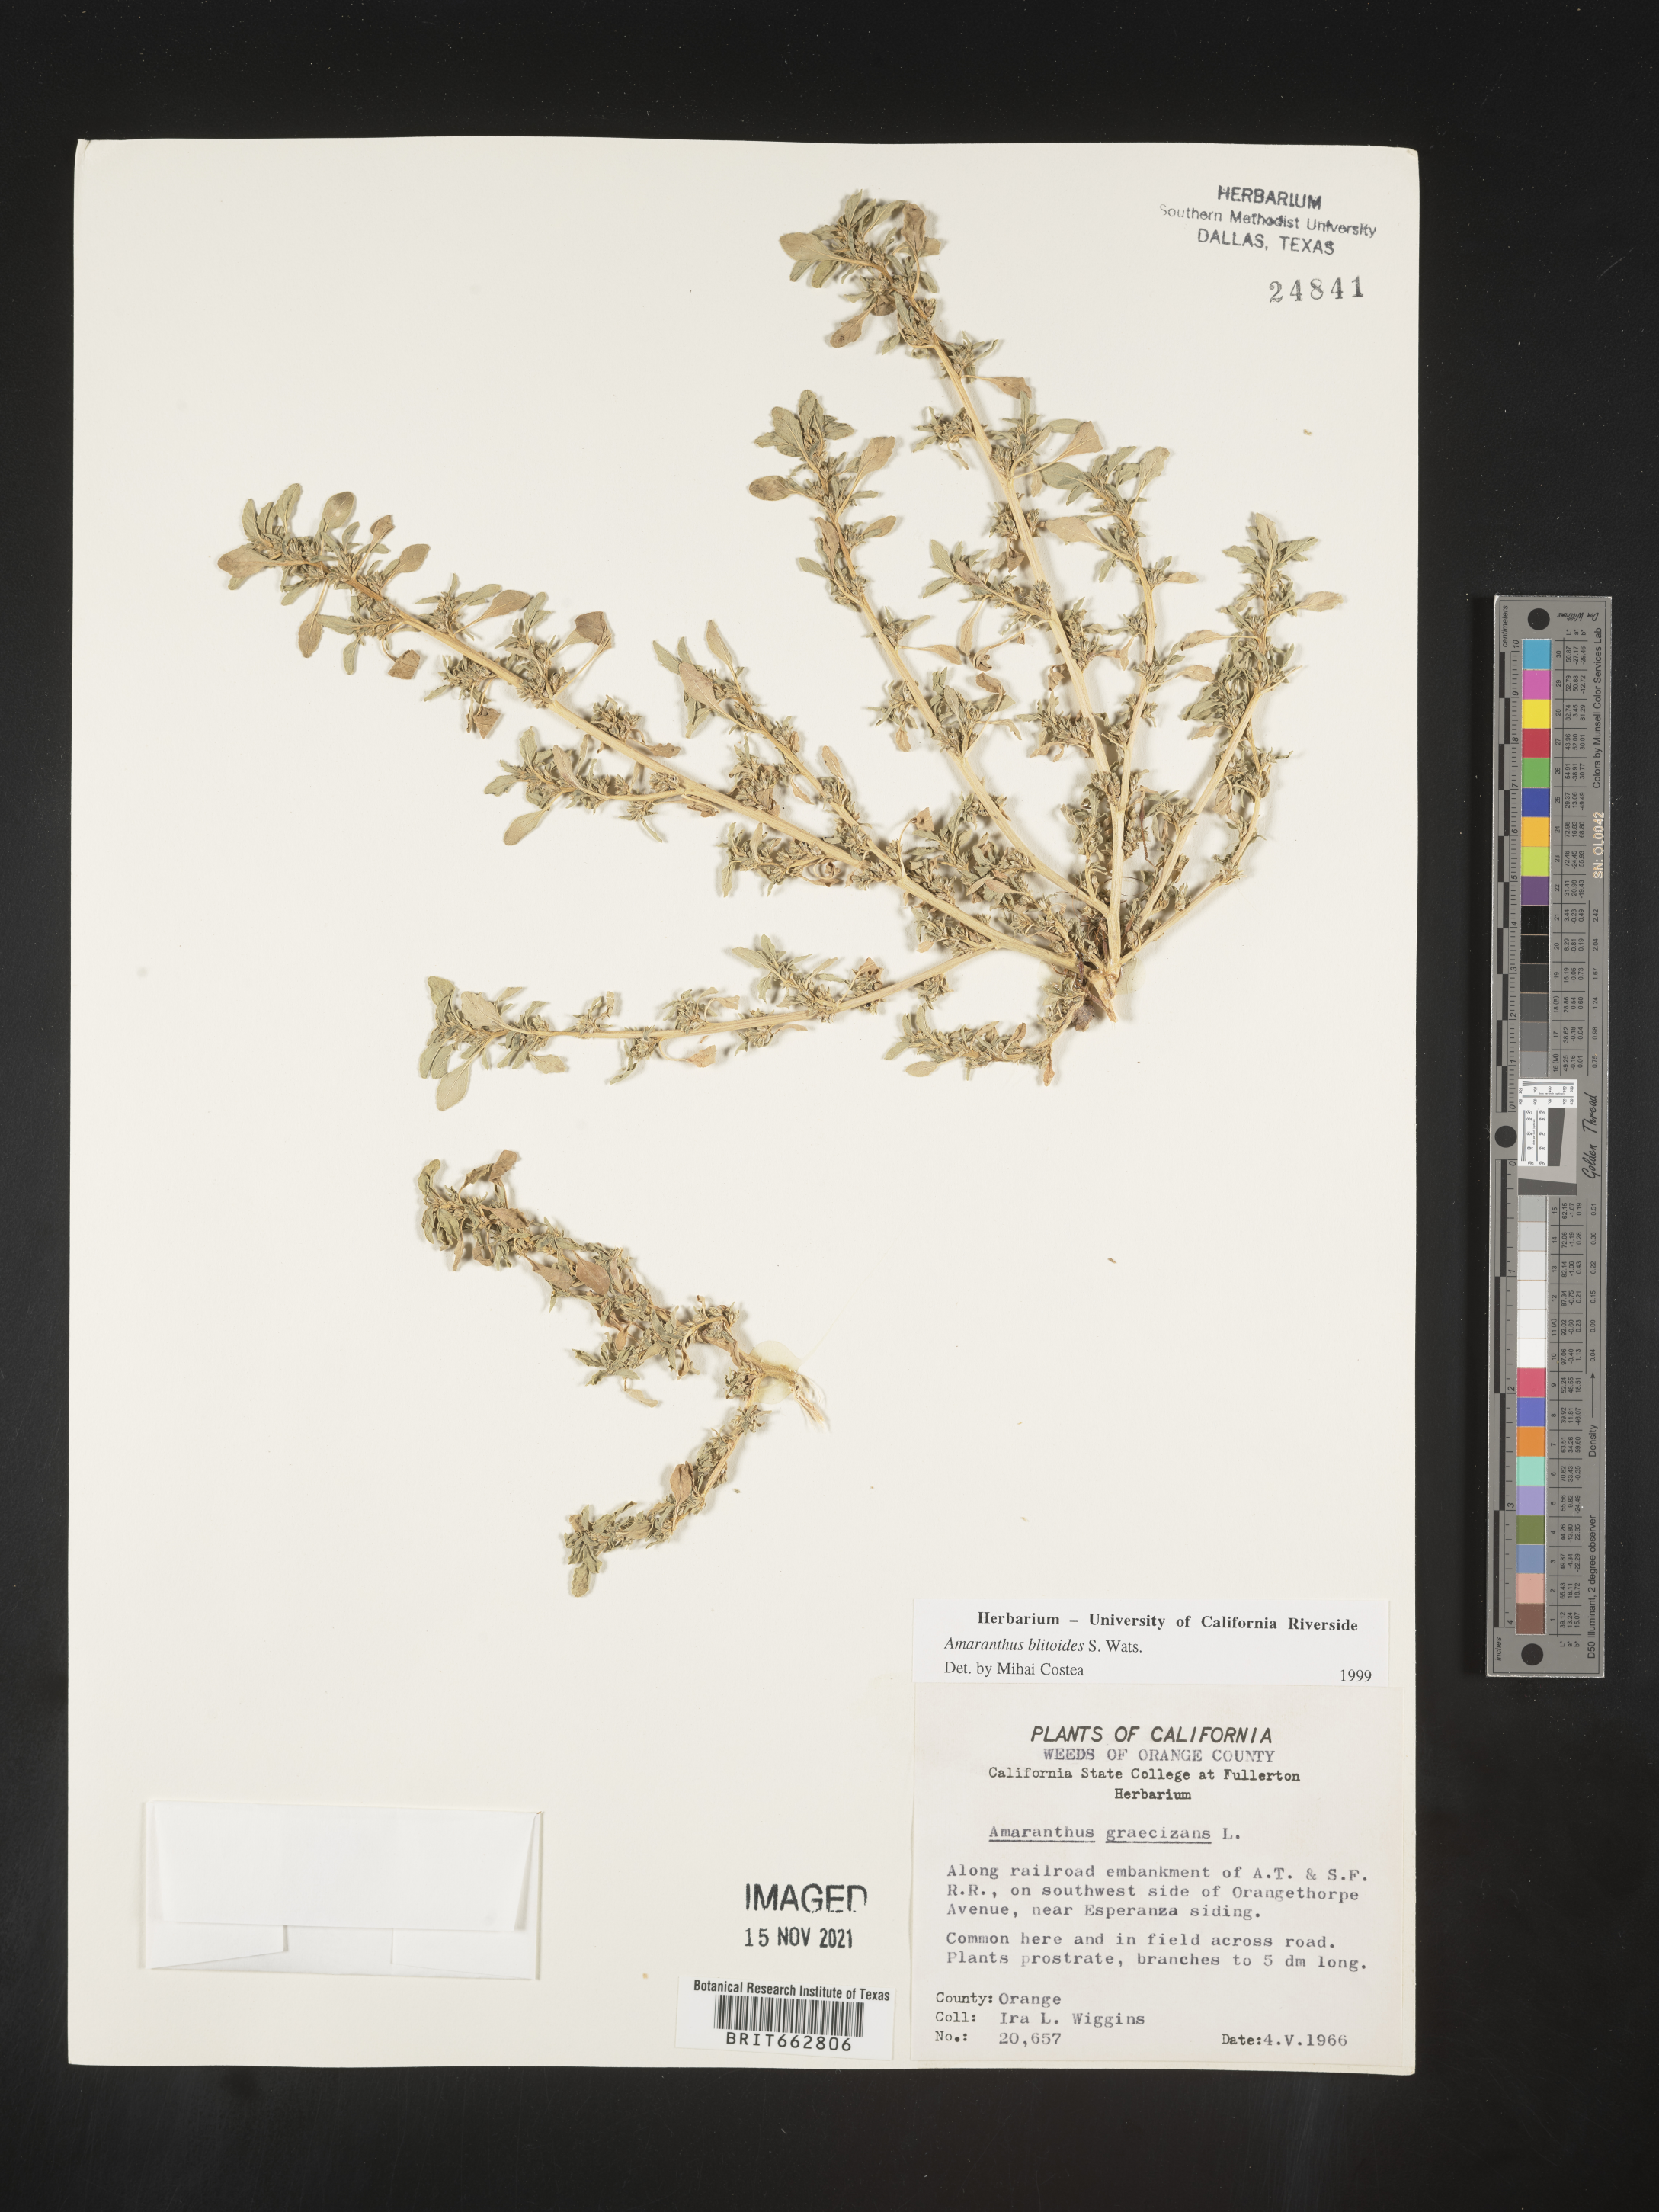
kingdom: Plantae
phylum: Tracheophyta
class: Magnoliopsida
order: Caryophyllales
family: Amaranthaceae
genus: Amaranthus
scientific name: Amaranthus blitoides
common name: Prostrate pigweed
